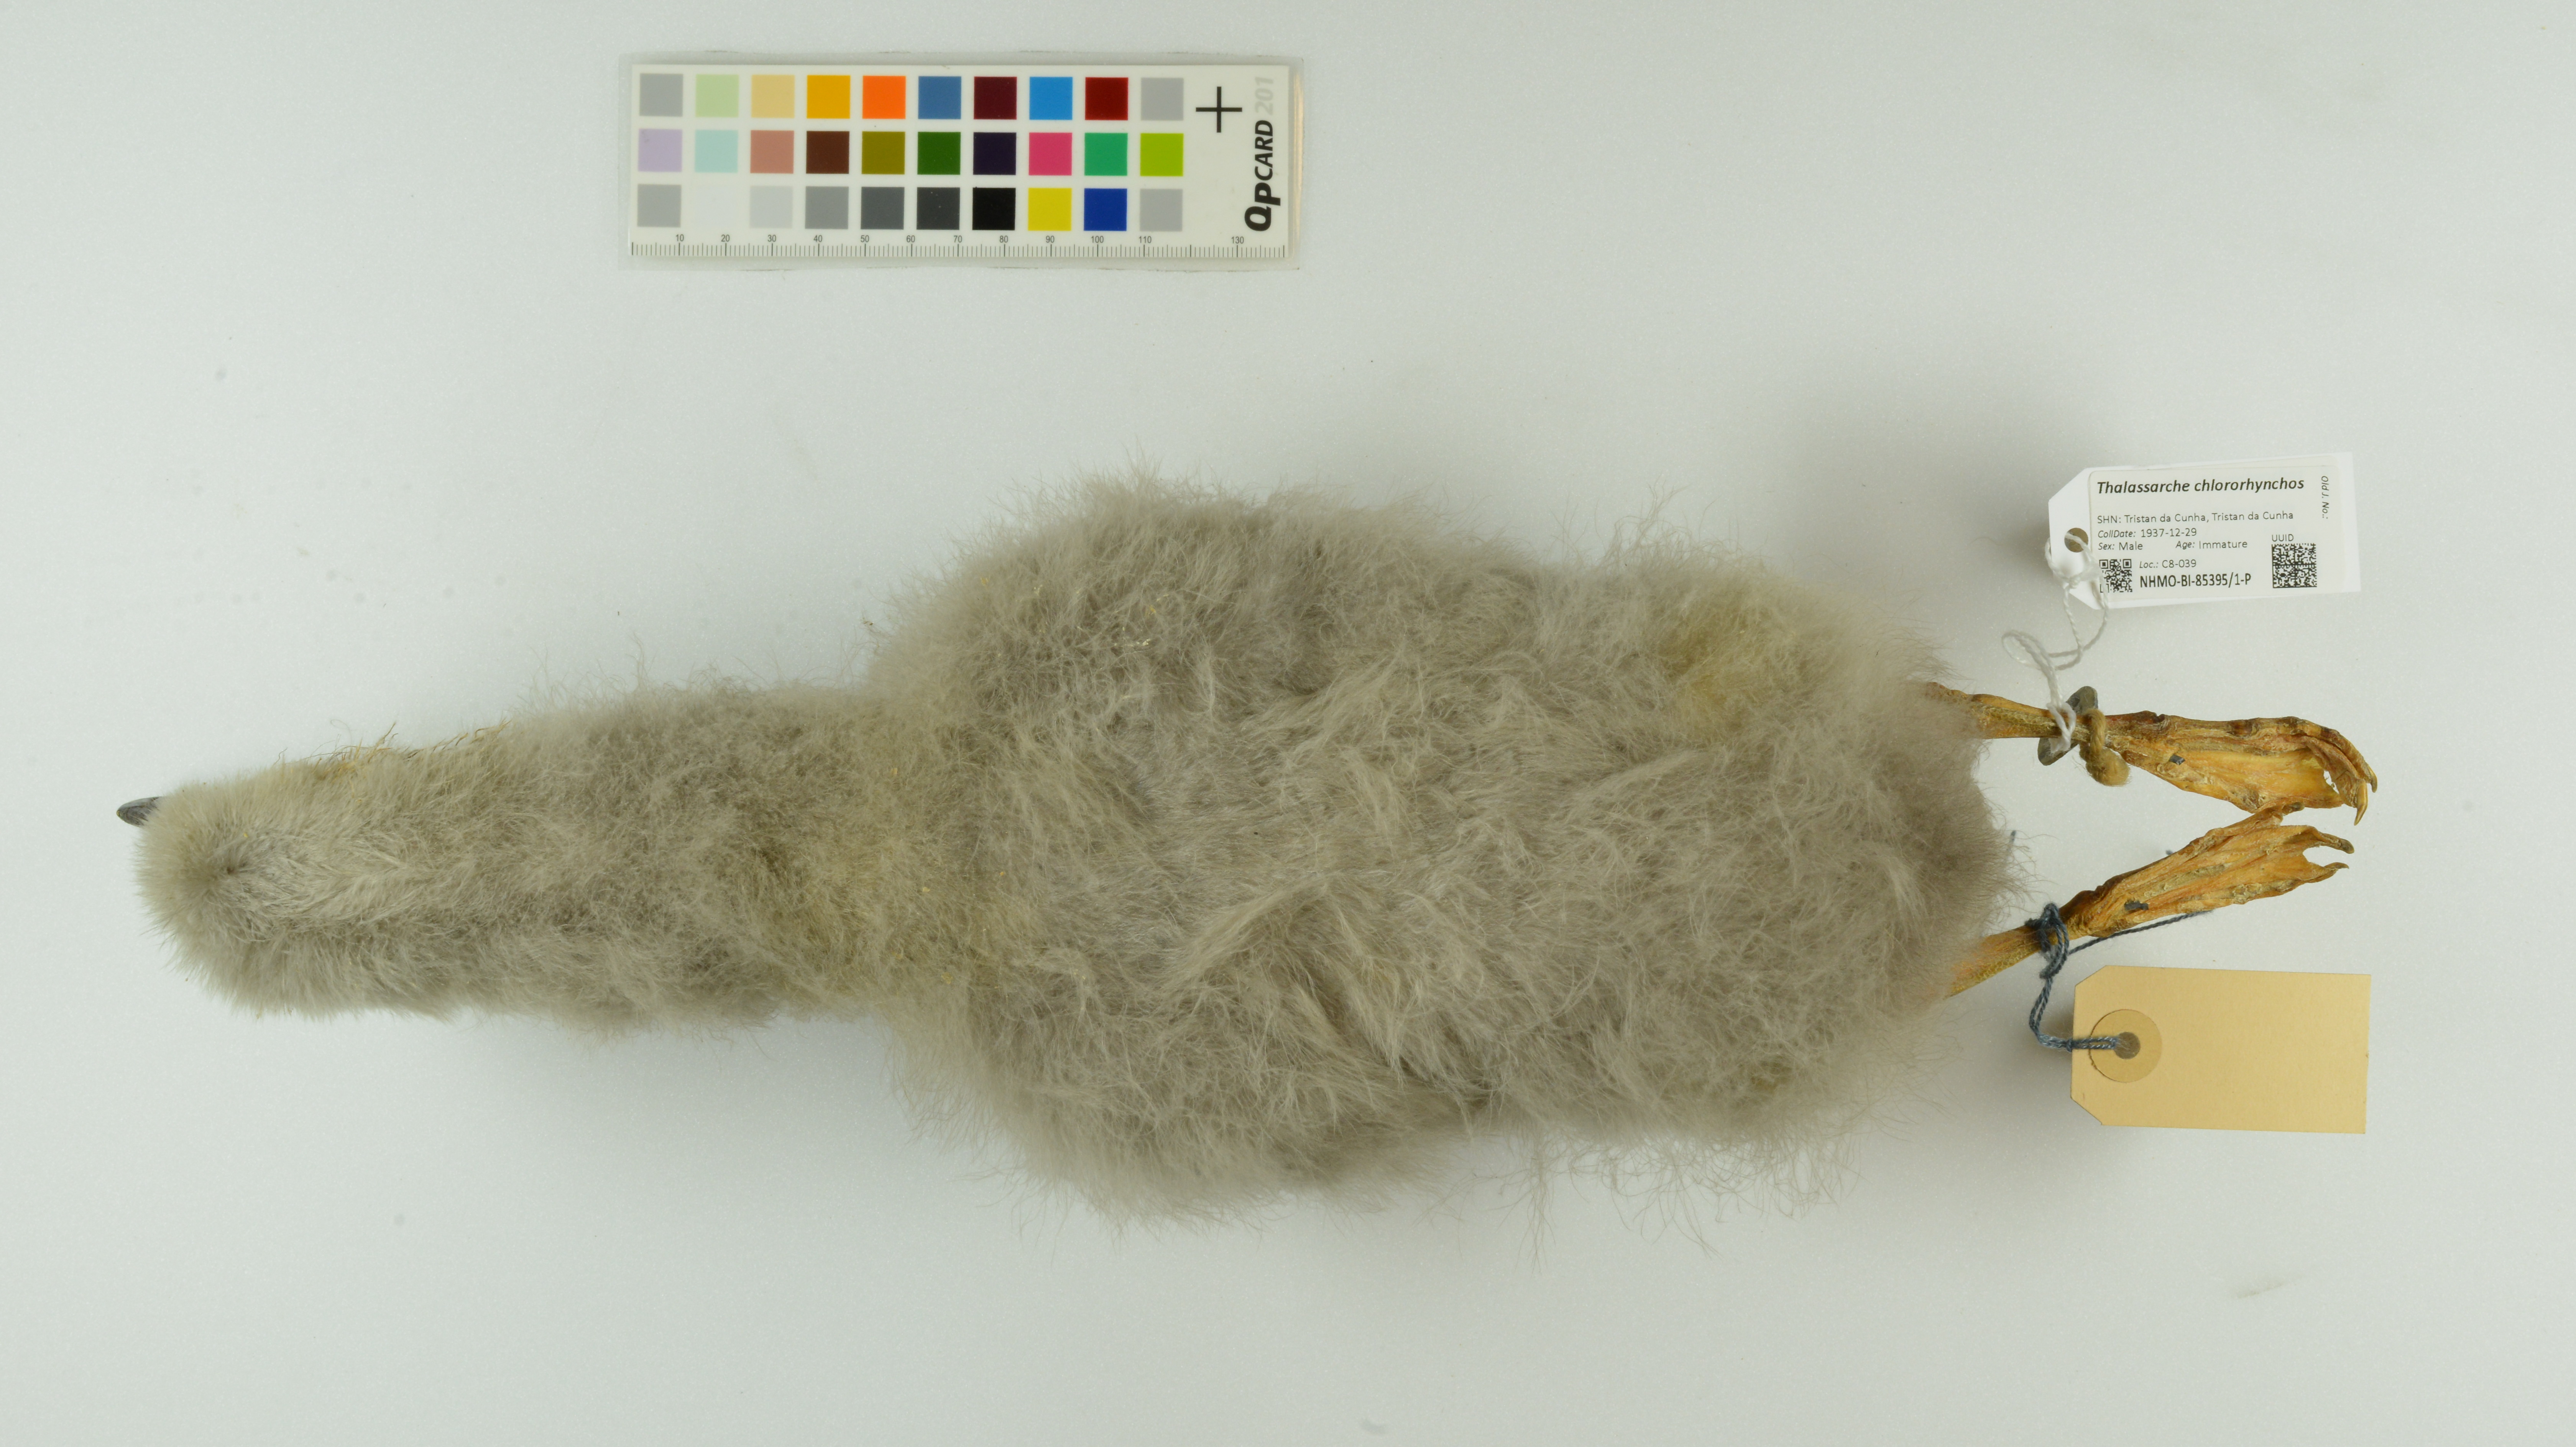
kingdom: Animalia
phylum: Chordata
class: Aves
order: Procellariiformes
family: Diomedeidae
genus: Thalassarche
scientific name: Thalassarche chlororhynchos
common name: Atlantic yellow-nosed albatross
